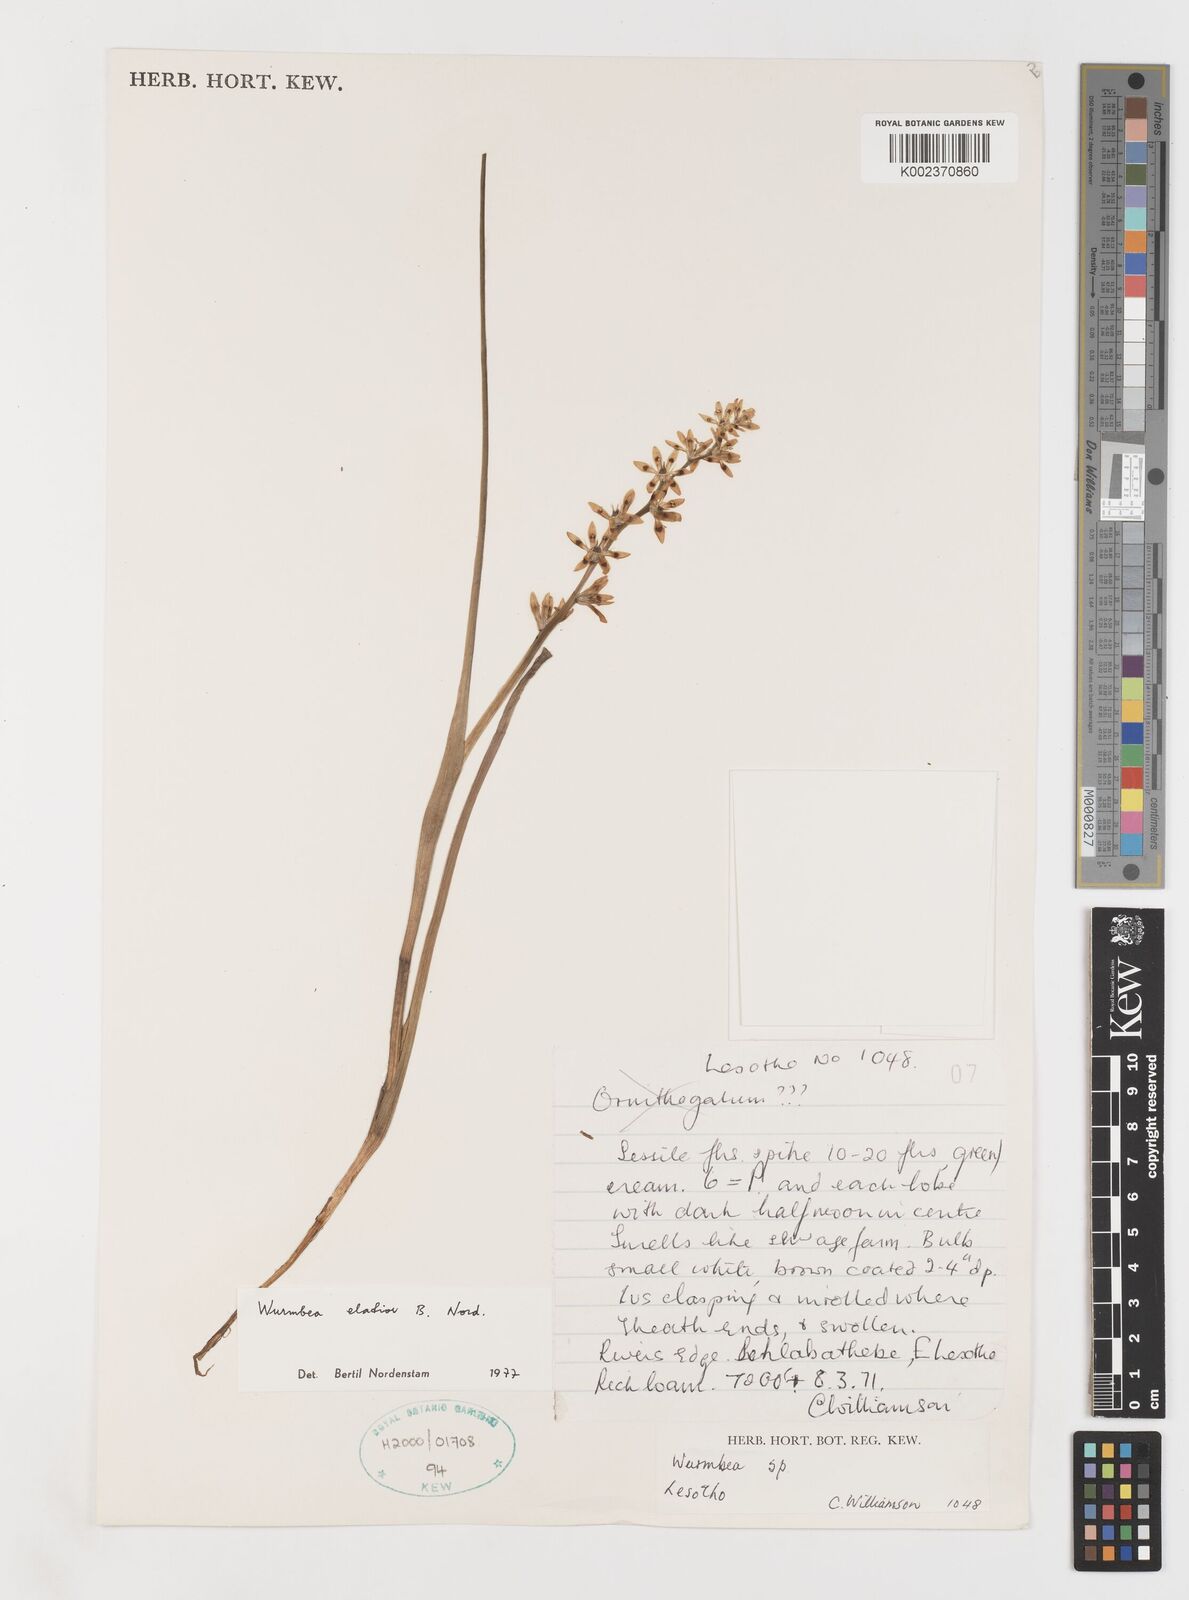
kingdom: Plantae
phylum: Tracheophyta
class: Liliopsida
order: Liliales
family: Colchicaceae
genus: Wurmbea
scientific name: Wurmbea elatior
